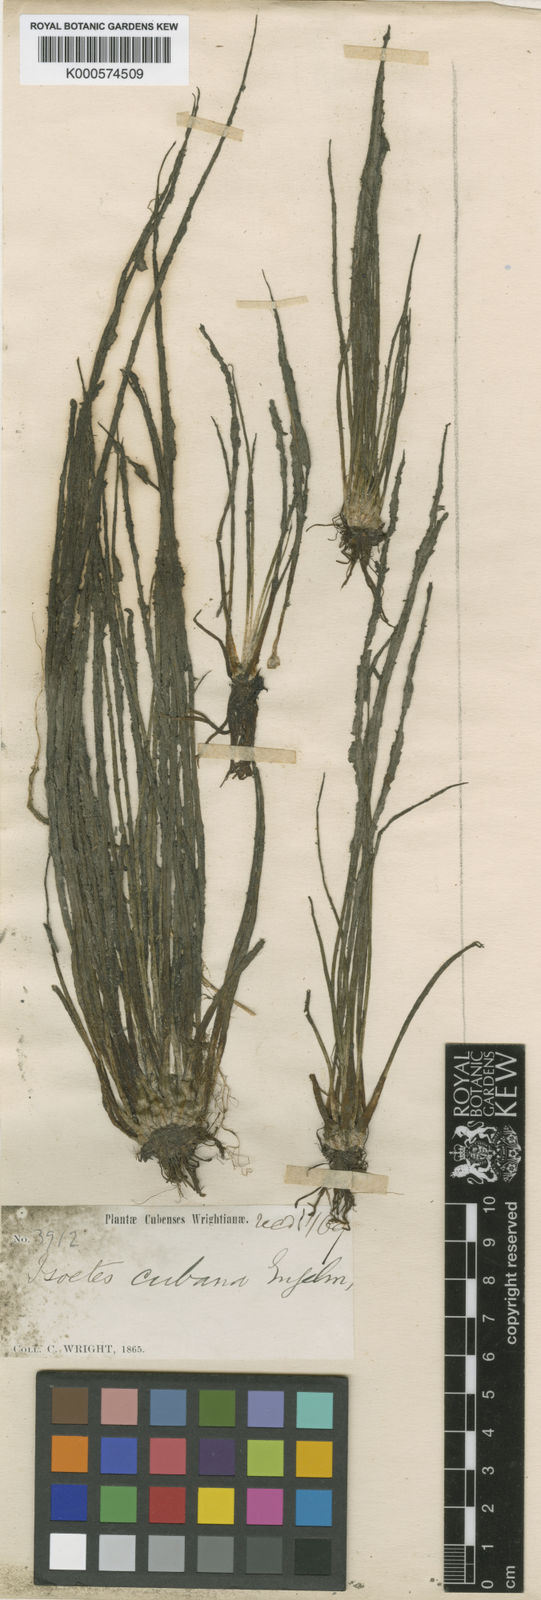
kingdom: Plantae
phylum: Tracheophyta
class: Lycopodiopsida
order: Isoetales
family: Isoetaceae
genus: Isoetes
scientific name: Isoetes
